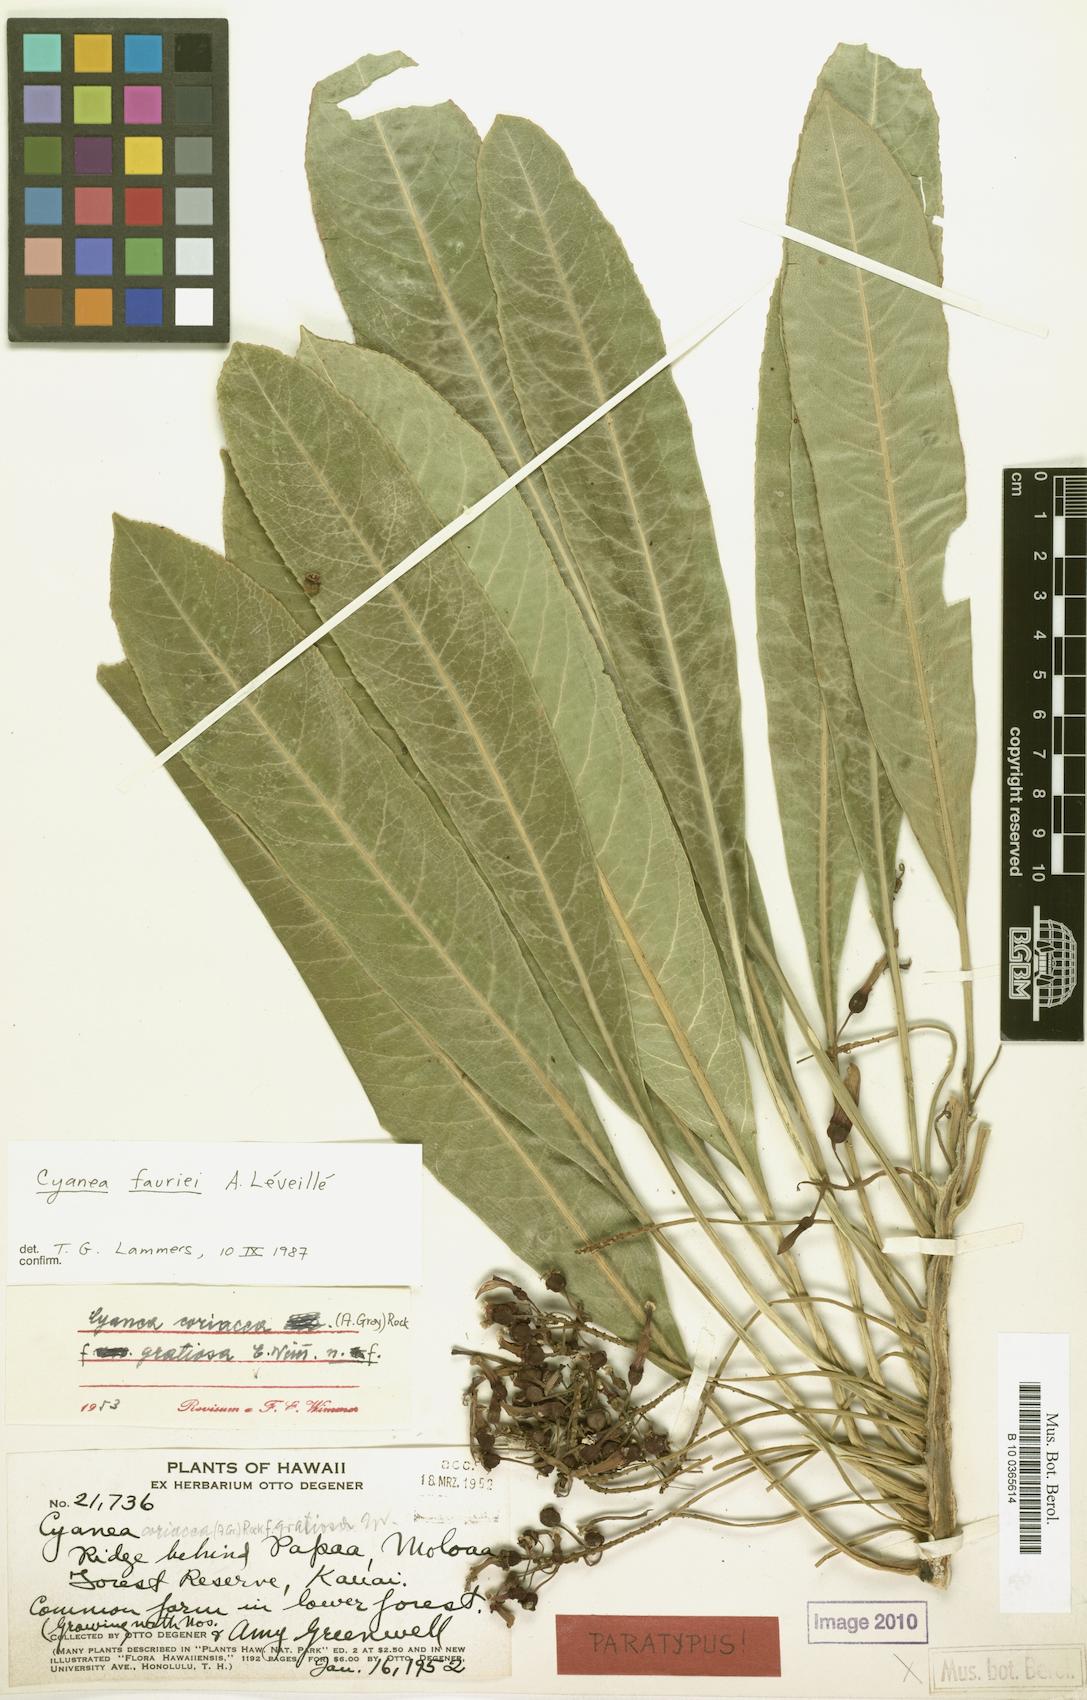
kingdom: Plantae
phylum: Tracheophyta
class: Magnoliopsida
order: Asterales
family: Campanulaceae
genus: Cyanea
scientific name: Cyanea coriacea
